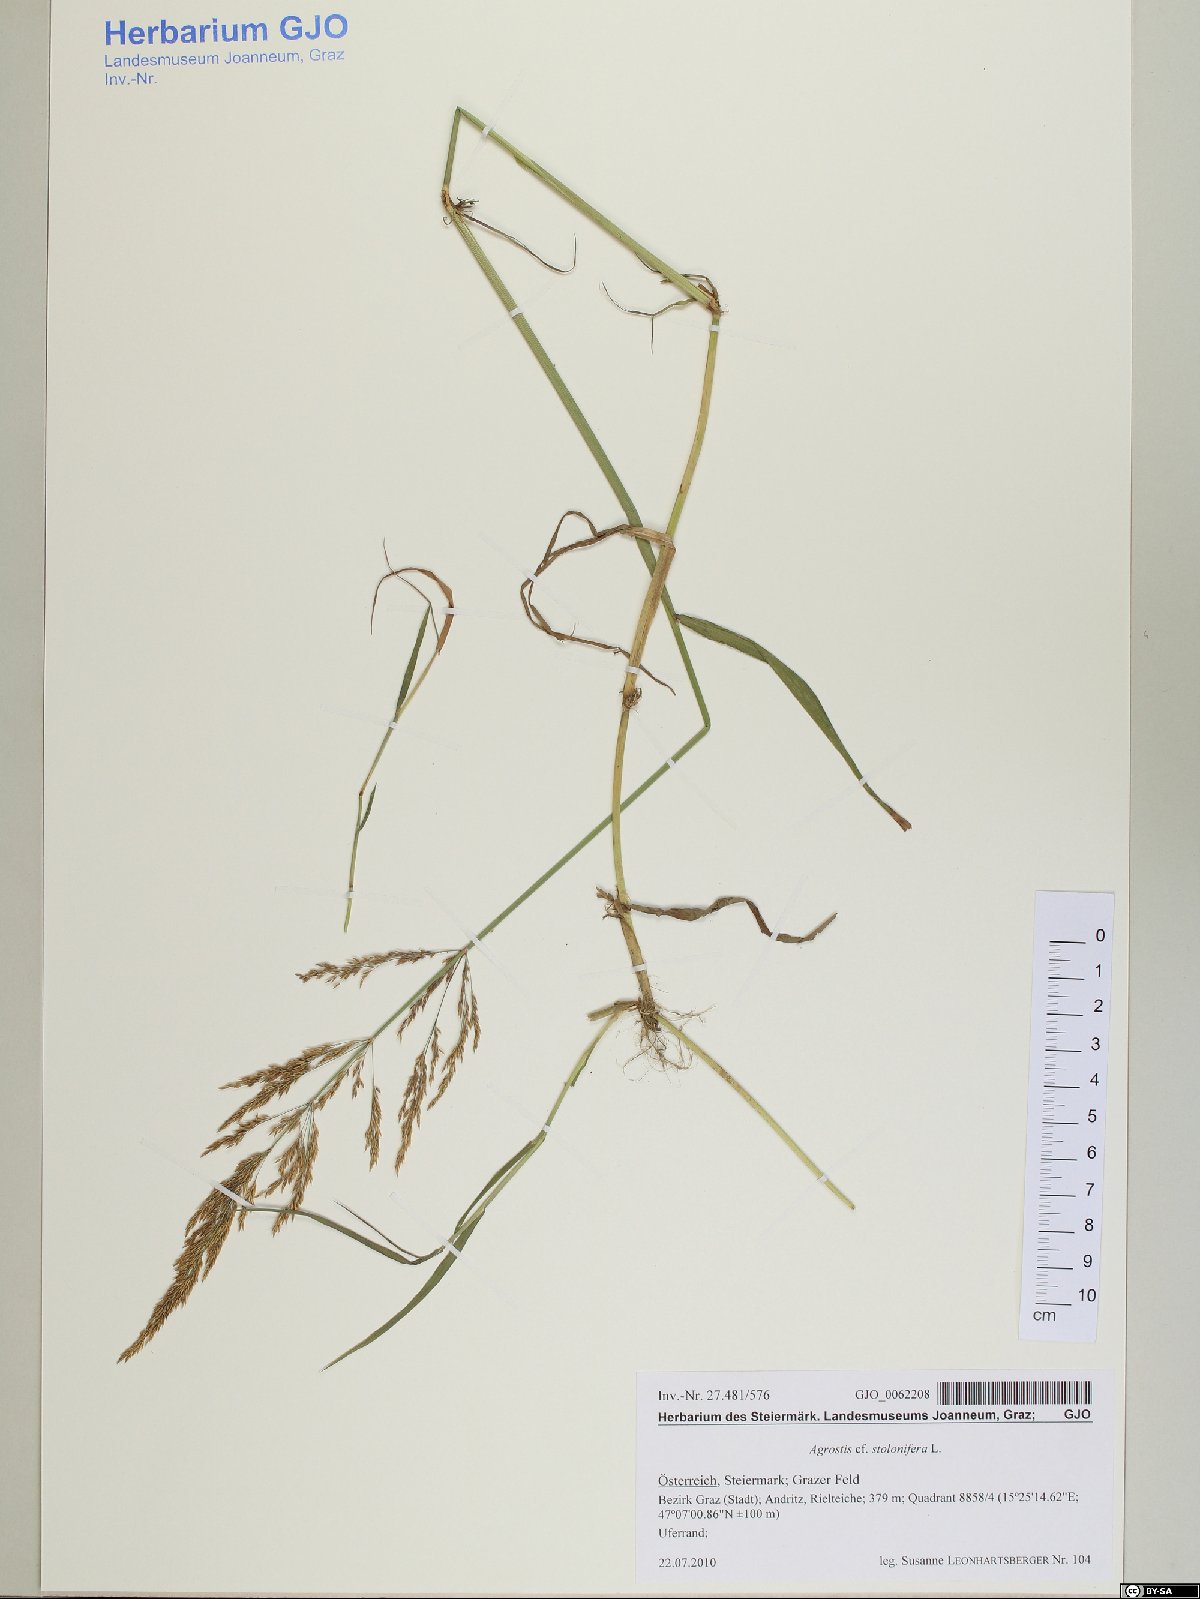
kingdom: Plantae
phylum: Tracheophyta
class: Liliopsida
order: Poales
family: Poaceae
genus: Agrostis
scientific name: Agrostis stolonifera
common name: Creeping bentgrass
